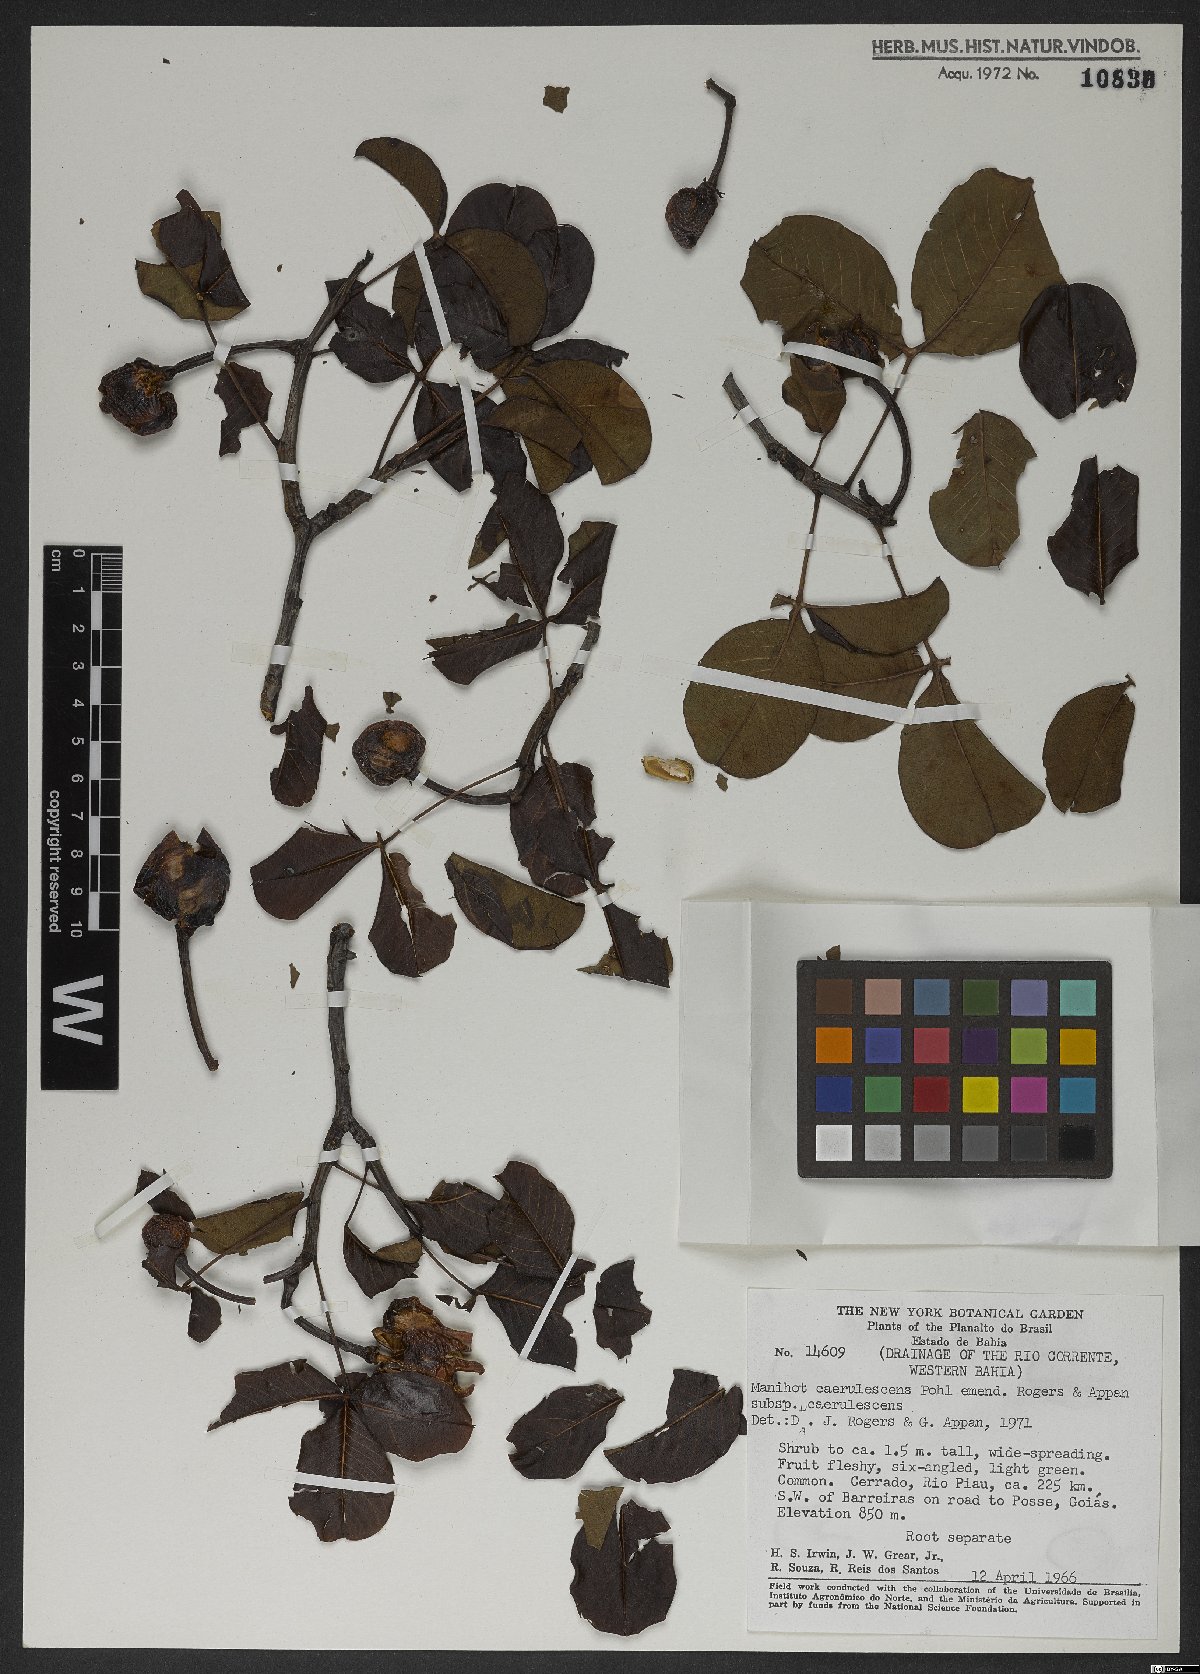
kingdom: Plantae
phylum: Tracheophyta
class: Magnoliopsida
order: Malpighiales
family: Euphorbiaceae
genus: Manihot
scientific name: Manihot caerulescens
